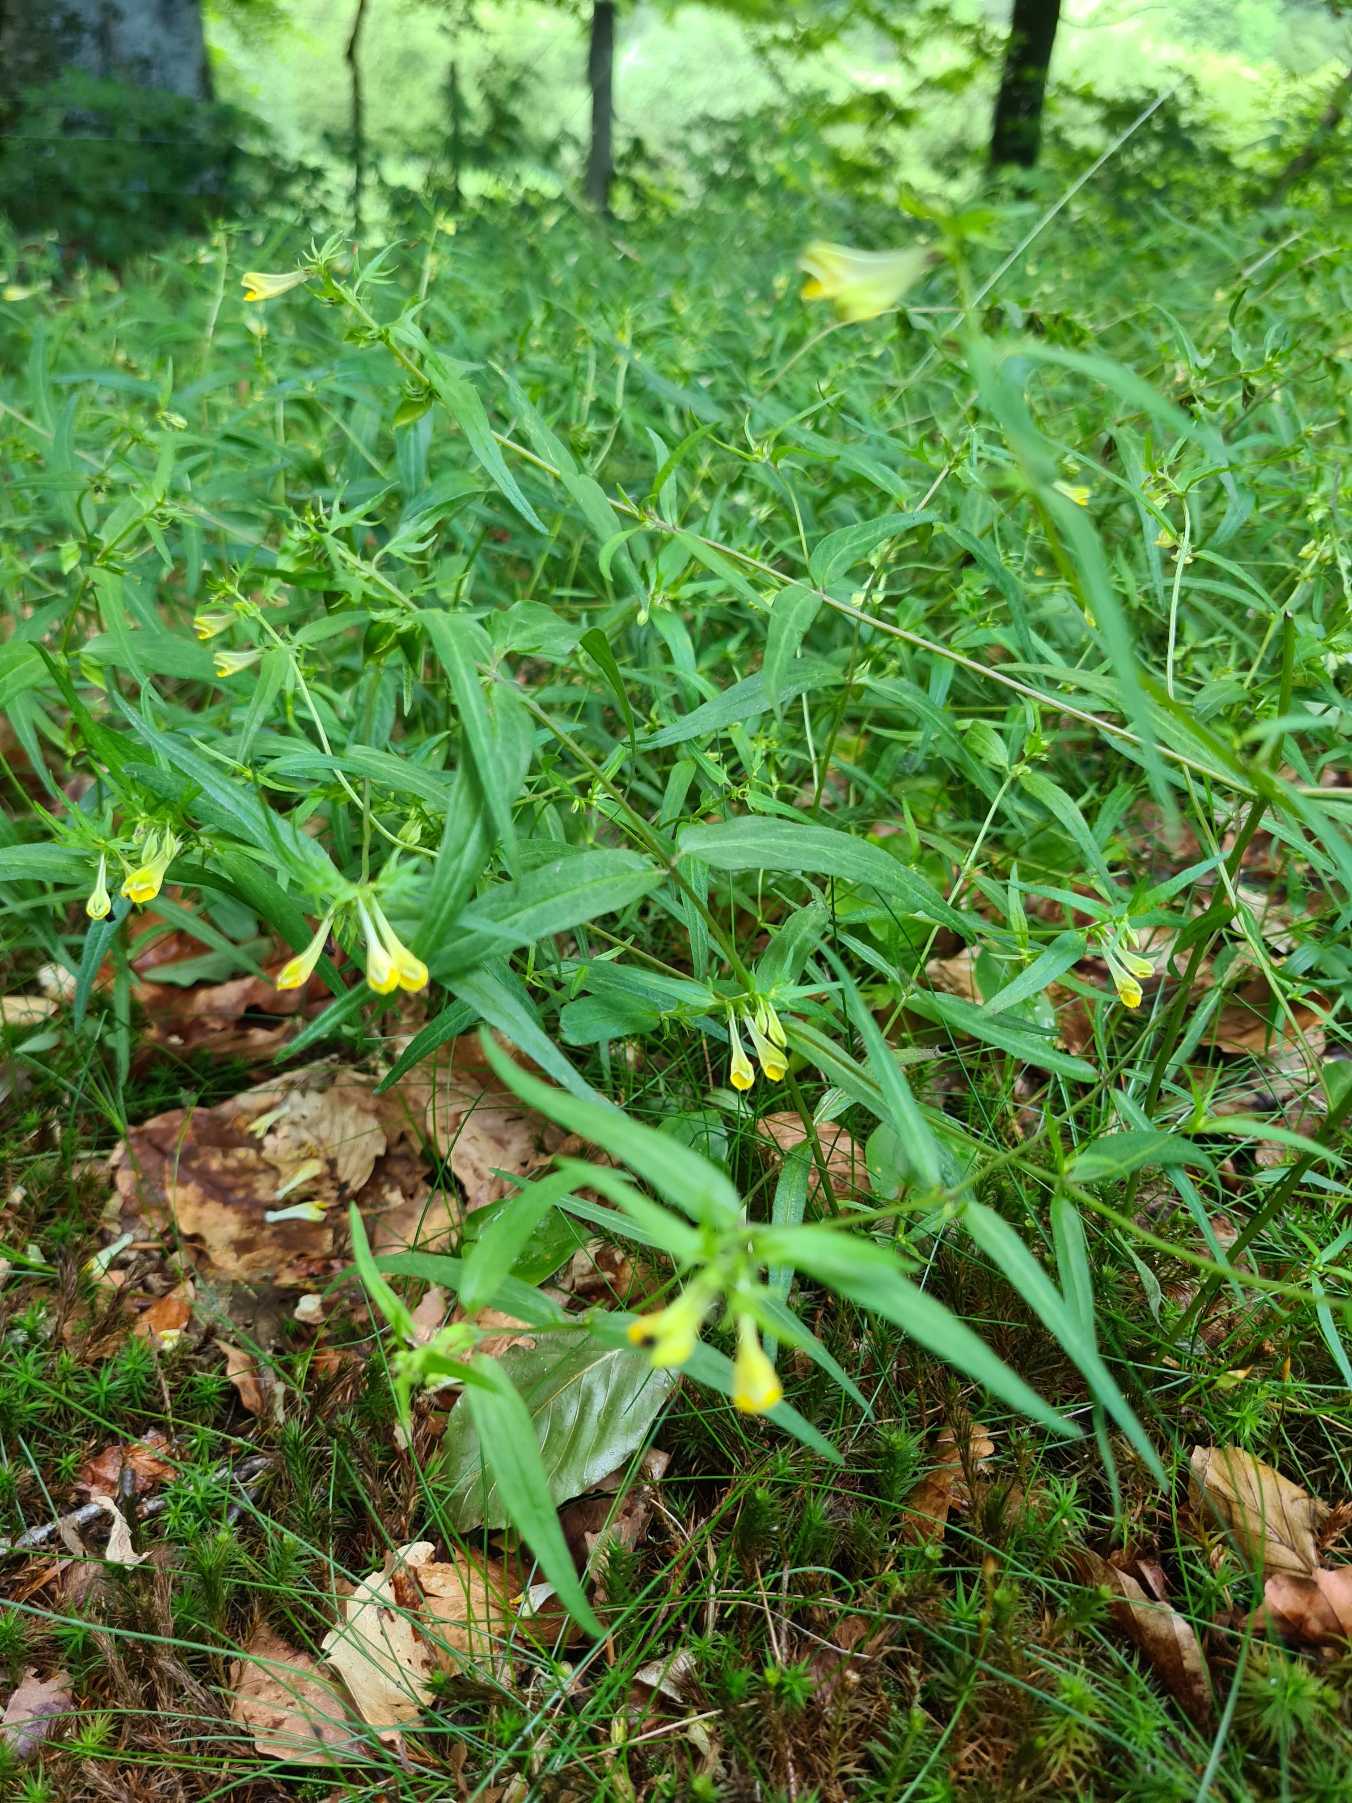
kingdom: Plantae
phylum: Tracheophyta
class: Magnoliopsida
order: Lamiales
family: Orobanchaceae
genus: Melampyrum
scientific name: Melampyrum pratense
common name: Almindelig kohvede
